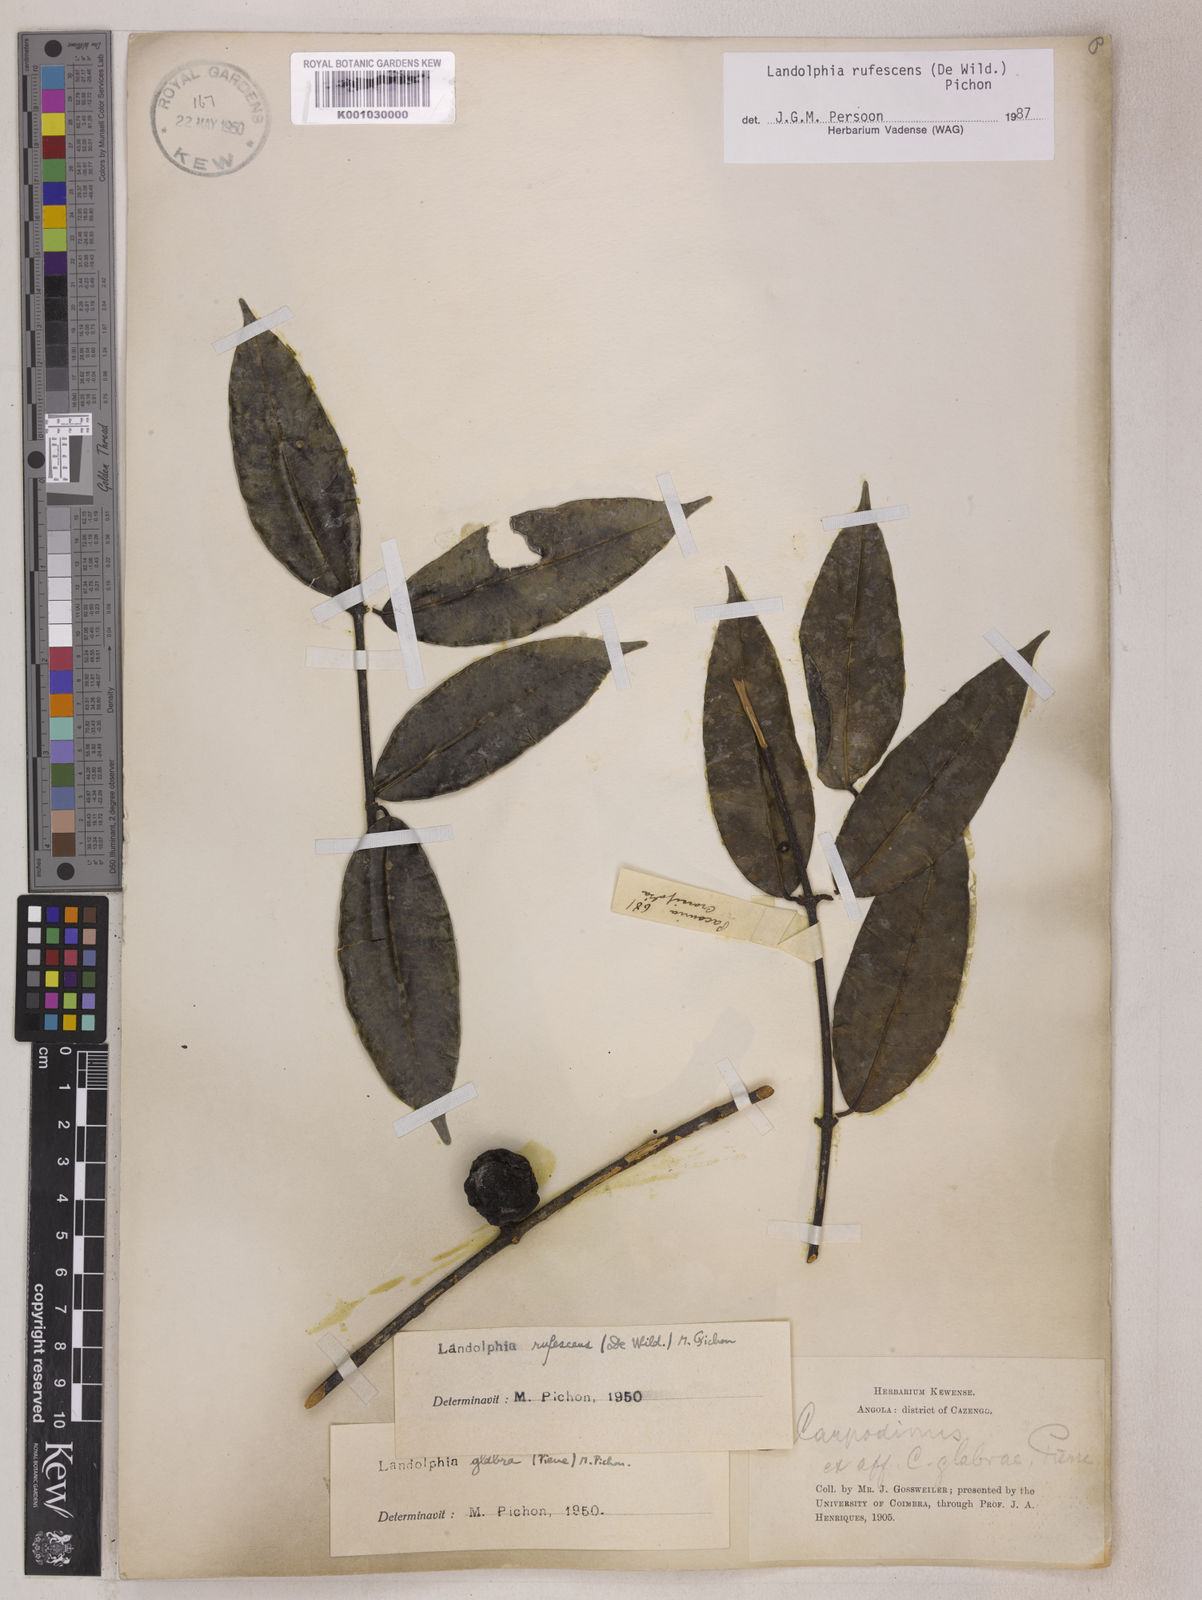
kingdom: Plantae
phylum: Tracheophyta
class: Magnoliopsida
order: Gentianales
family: Apocynaceae
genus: Landolphia
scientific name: Landolphia rufescens
